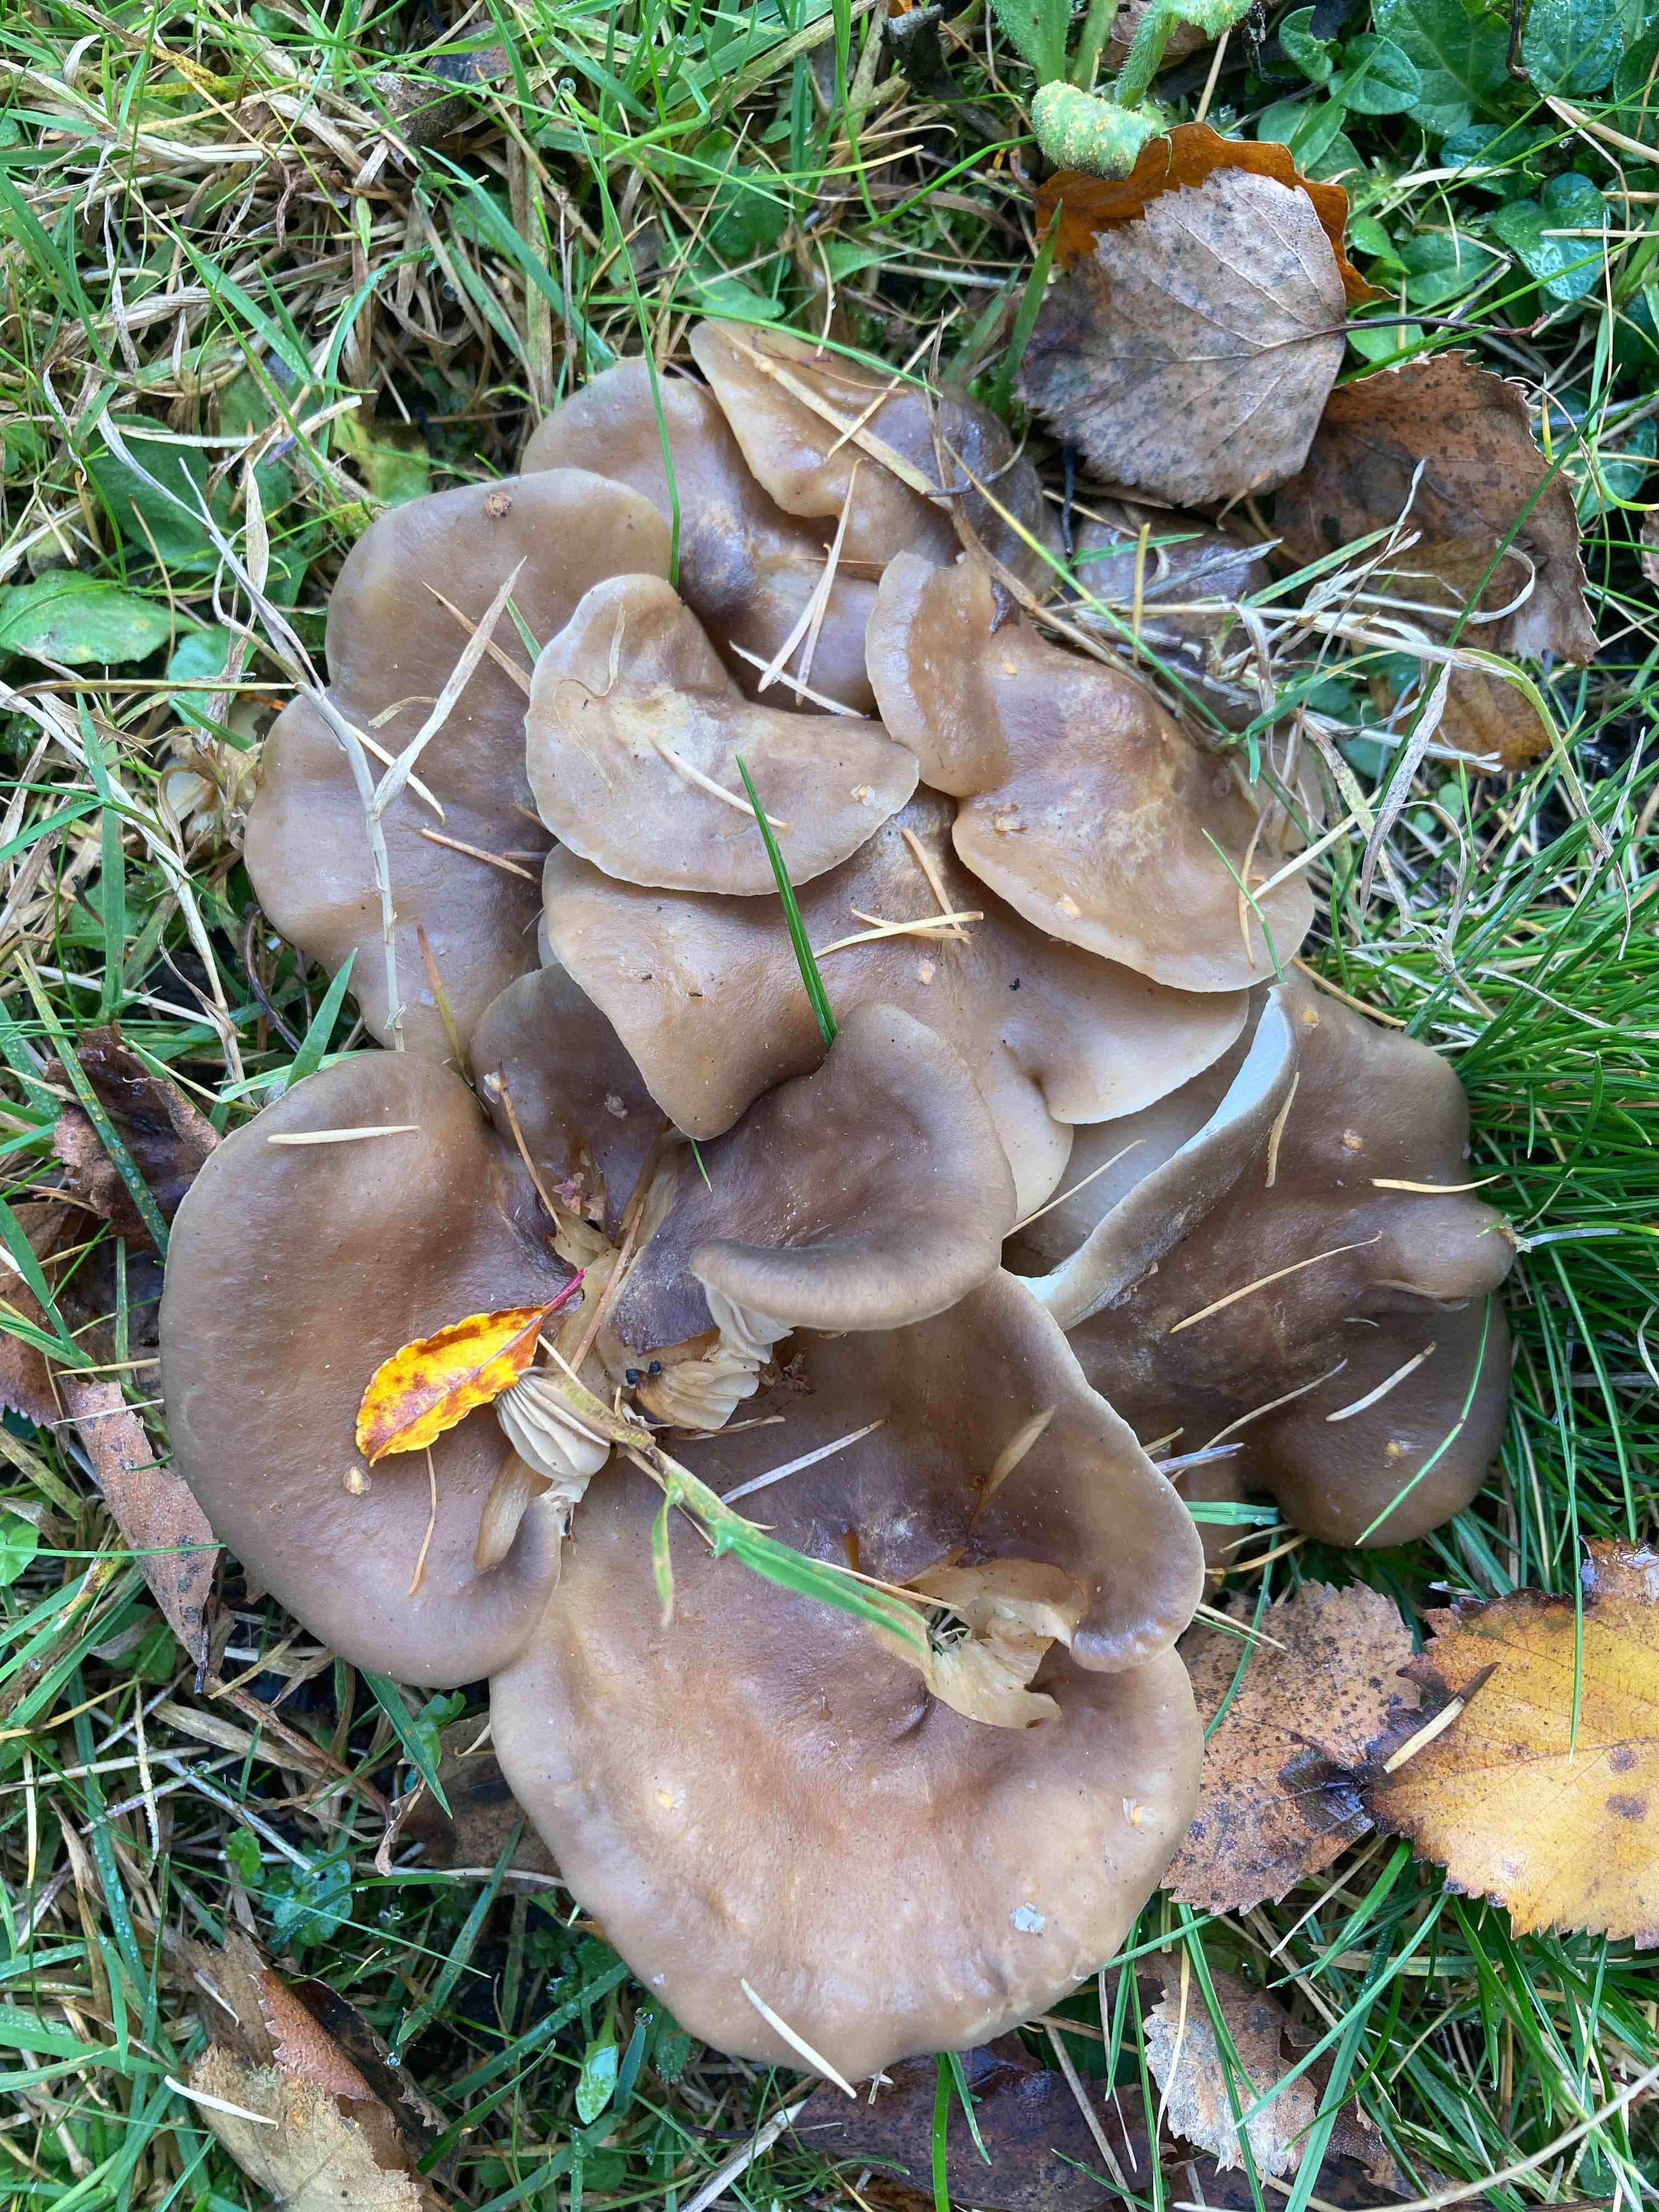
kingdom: Fungi
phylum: Basidiomycota
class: Agaricomycetes
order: Agaricales
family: Lyophyllaceae
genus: Lyophyllum
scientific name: Lyophyllum decastes
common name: Clustered domecap
